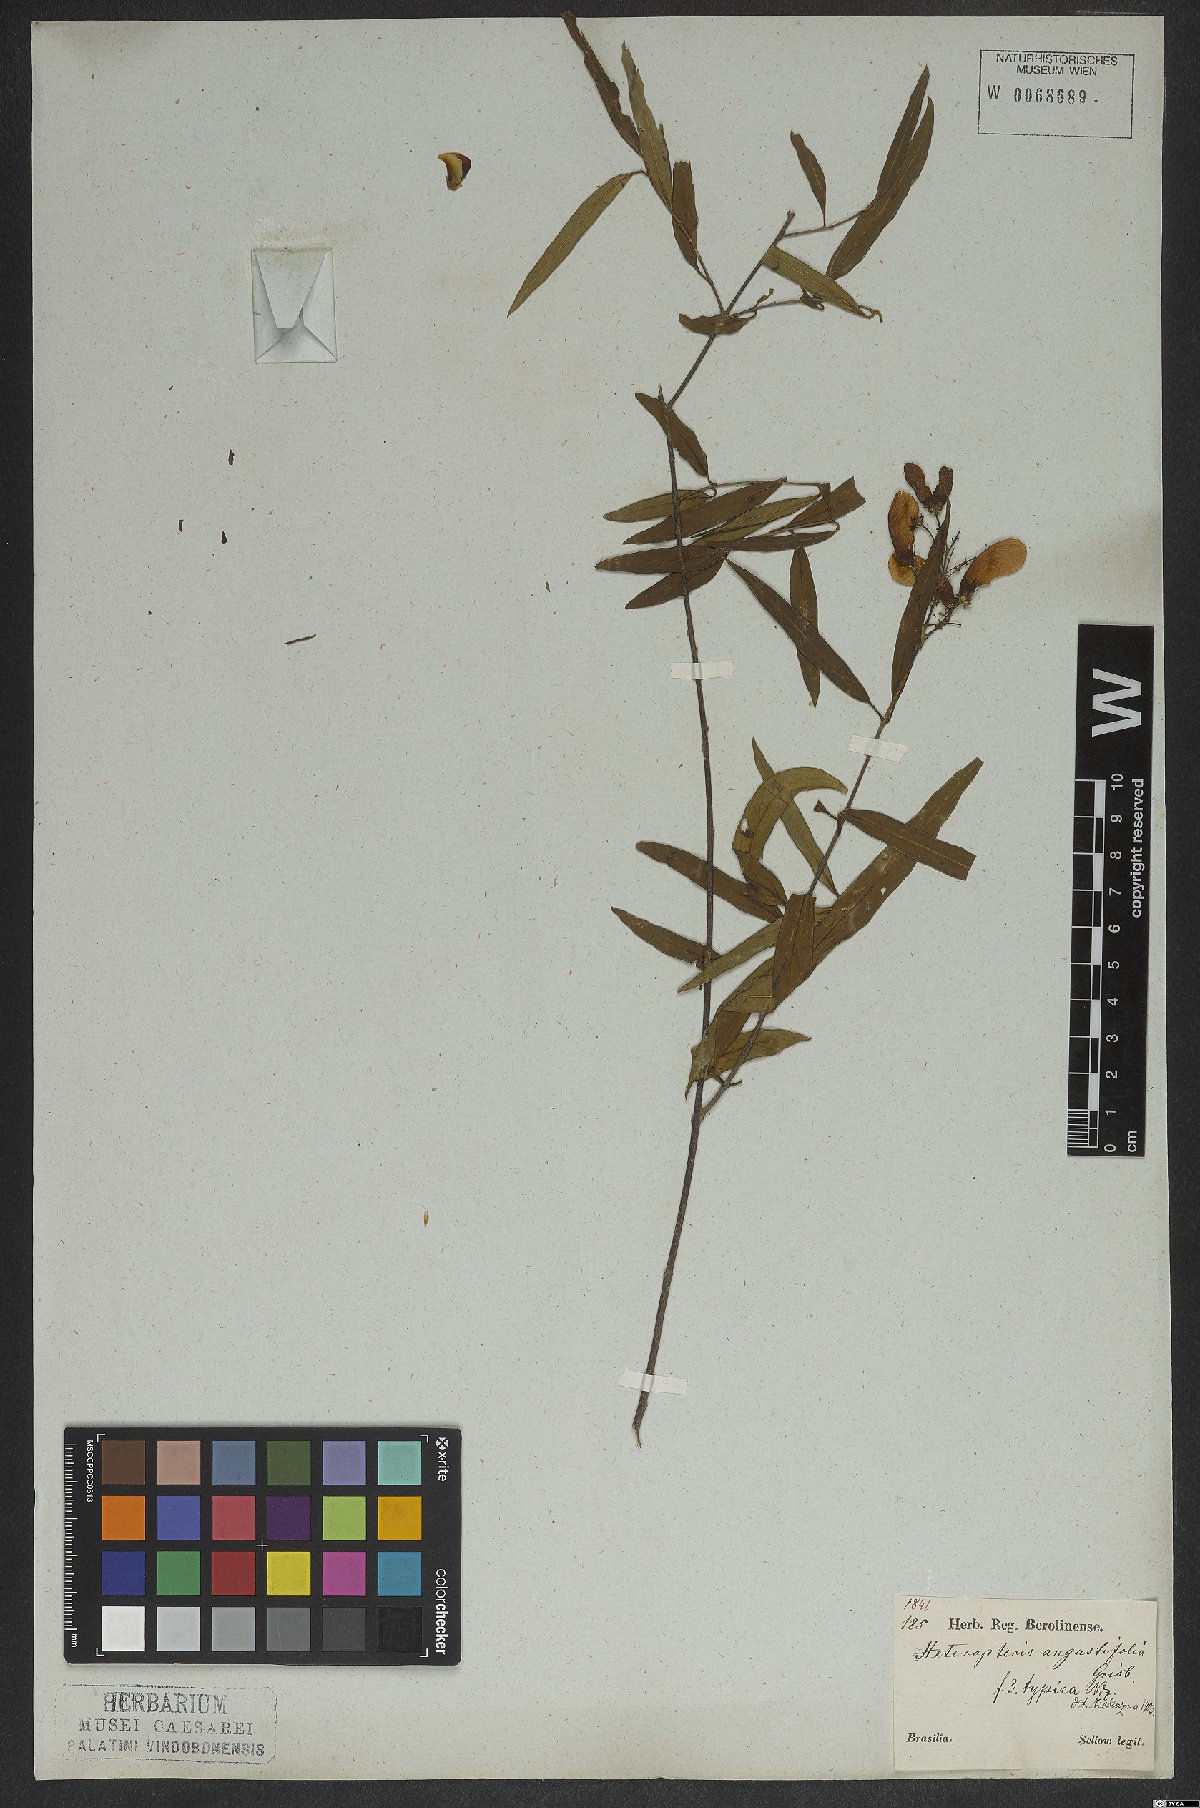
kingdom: Plantae
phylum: Tracheophyta
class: Magnoliopsida
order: Malpighiales
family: Malpighiaceae
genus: Heteropterys
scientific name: Heteropterys glabra
